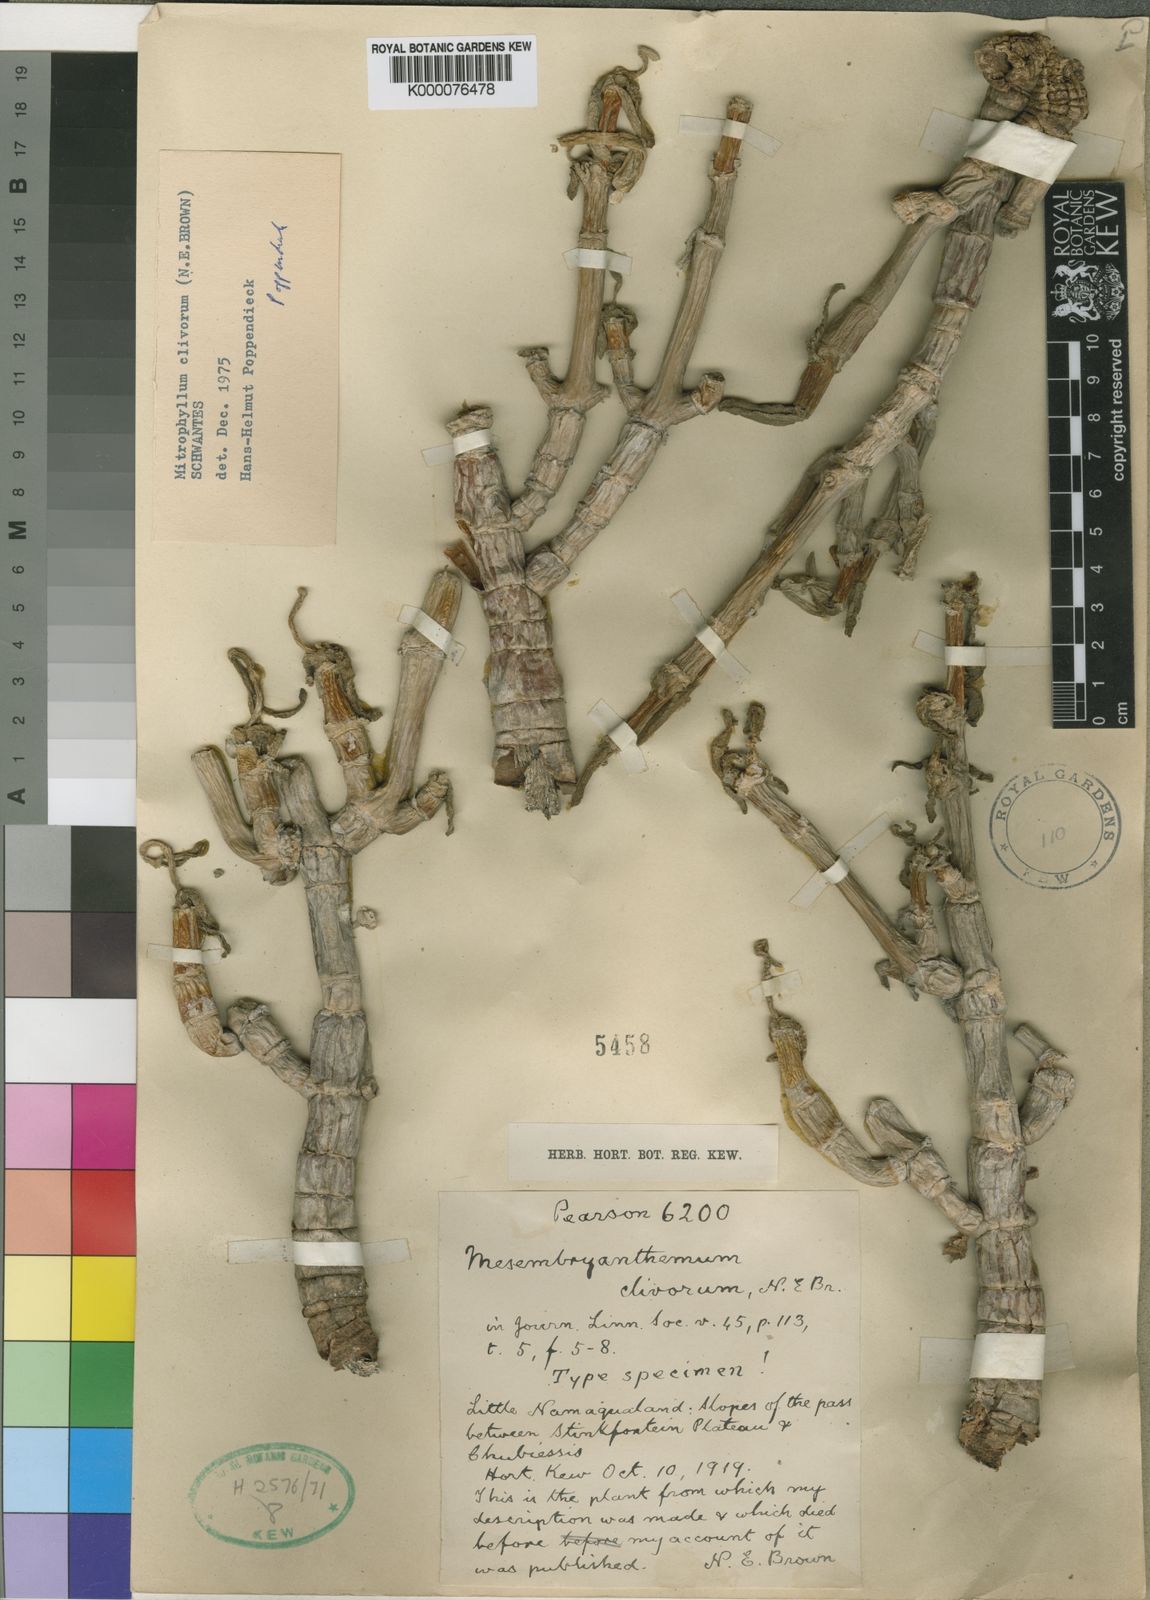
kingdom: Plantae
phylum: Tracheophyta
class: Magnoliopsida
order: Caryophyllales
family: Aizoaceae
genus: Mitrophyllum
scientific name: Mitrophyllum clivorum
